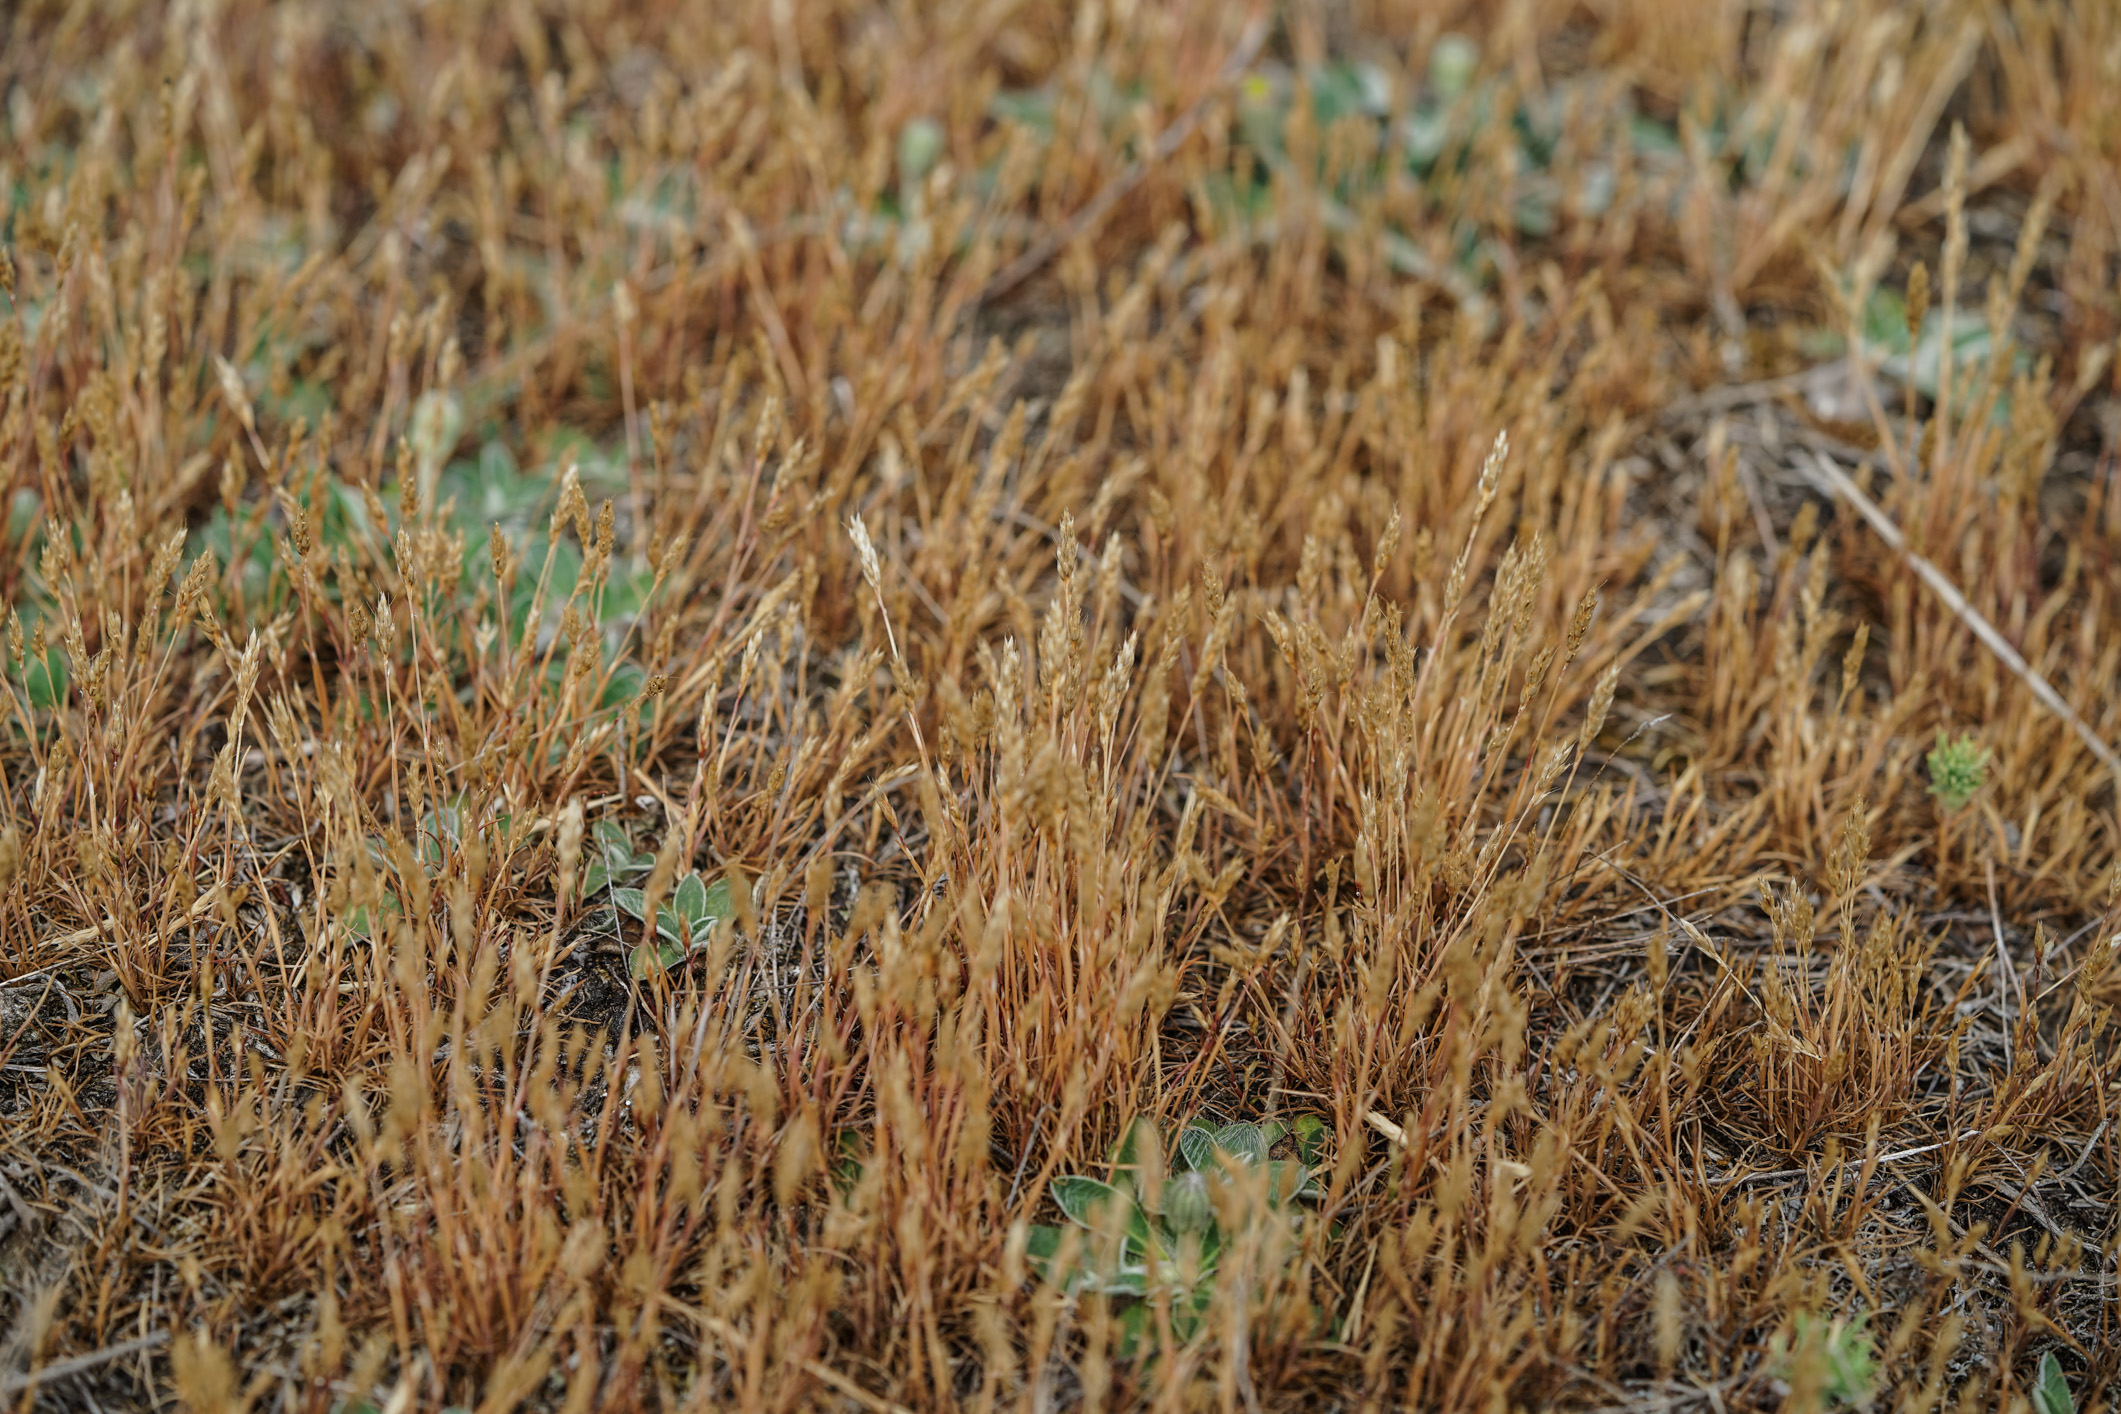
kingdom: Plantae
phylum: Tracheophyta
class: Liliopsida
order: Poales
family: Poaceae
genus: Aira
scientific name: Aira praecox
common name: Early hair-grass
